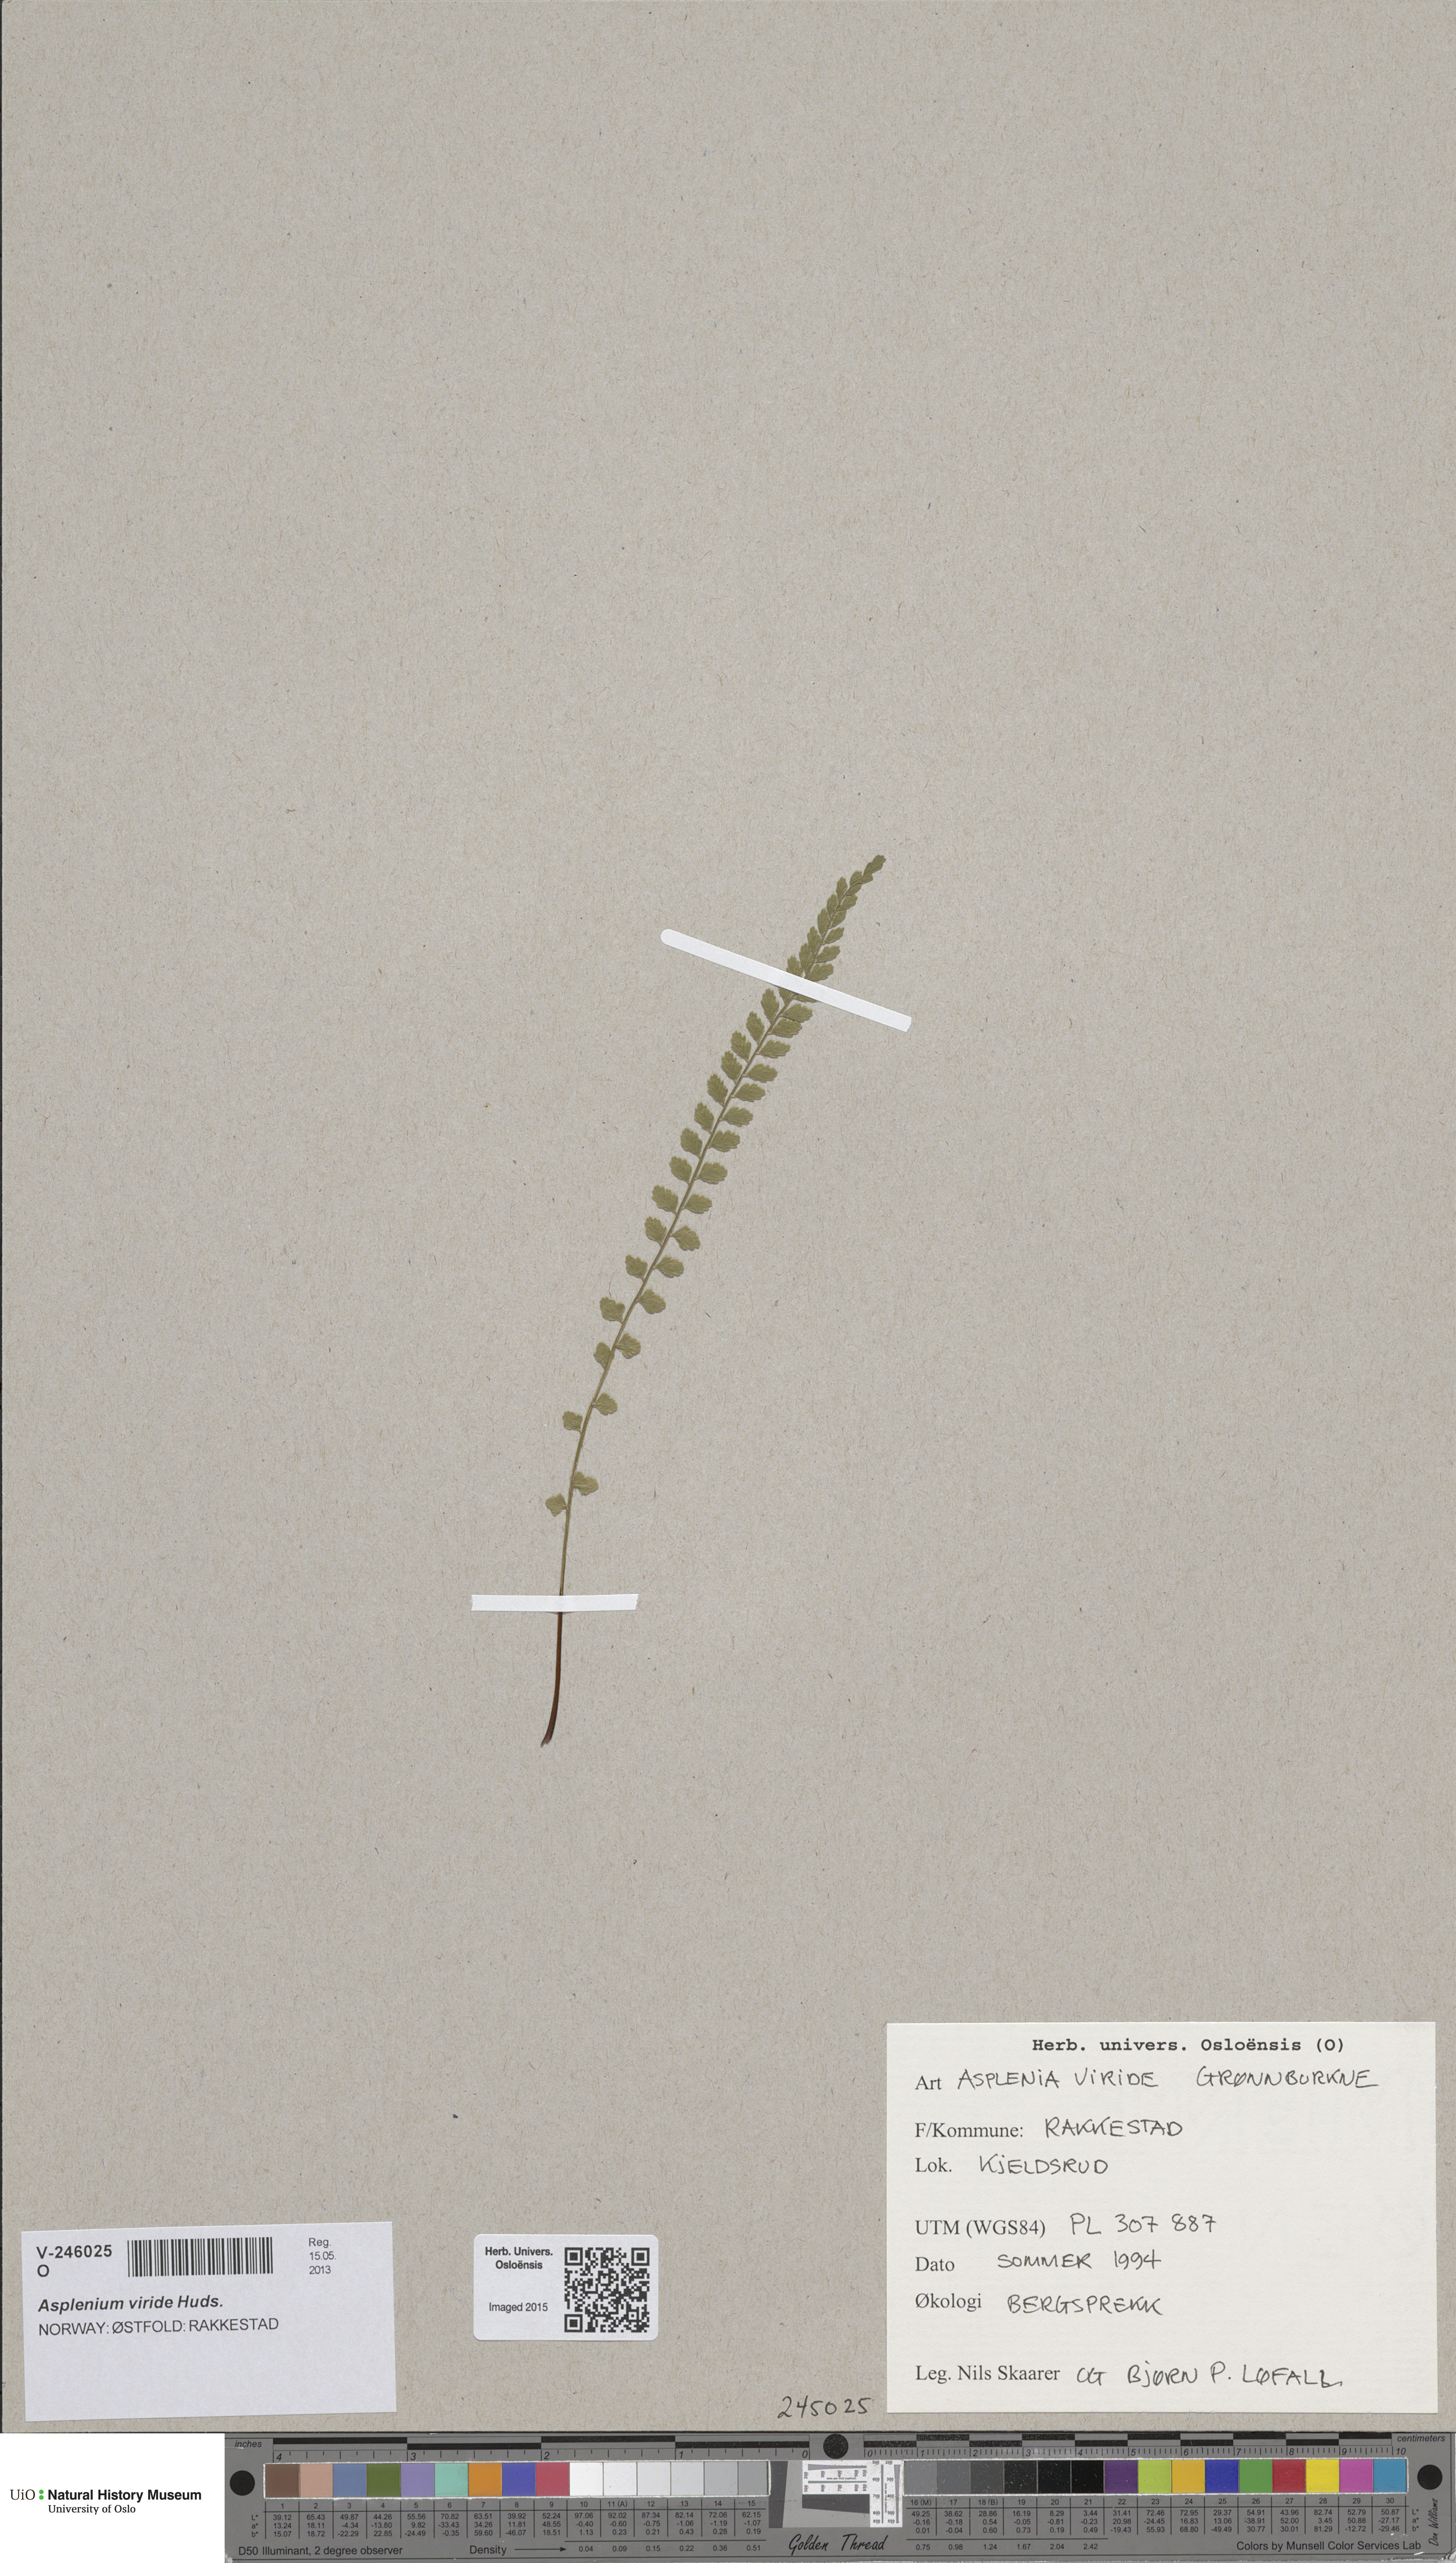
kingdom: Plantae
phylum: Tracheophyta
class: Polypodiopsida
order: Polypodiales
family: Aspleniaceae
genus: Asplenium
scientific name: Asplenium viride
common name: Green spleenwort
